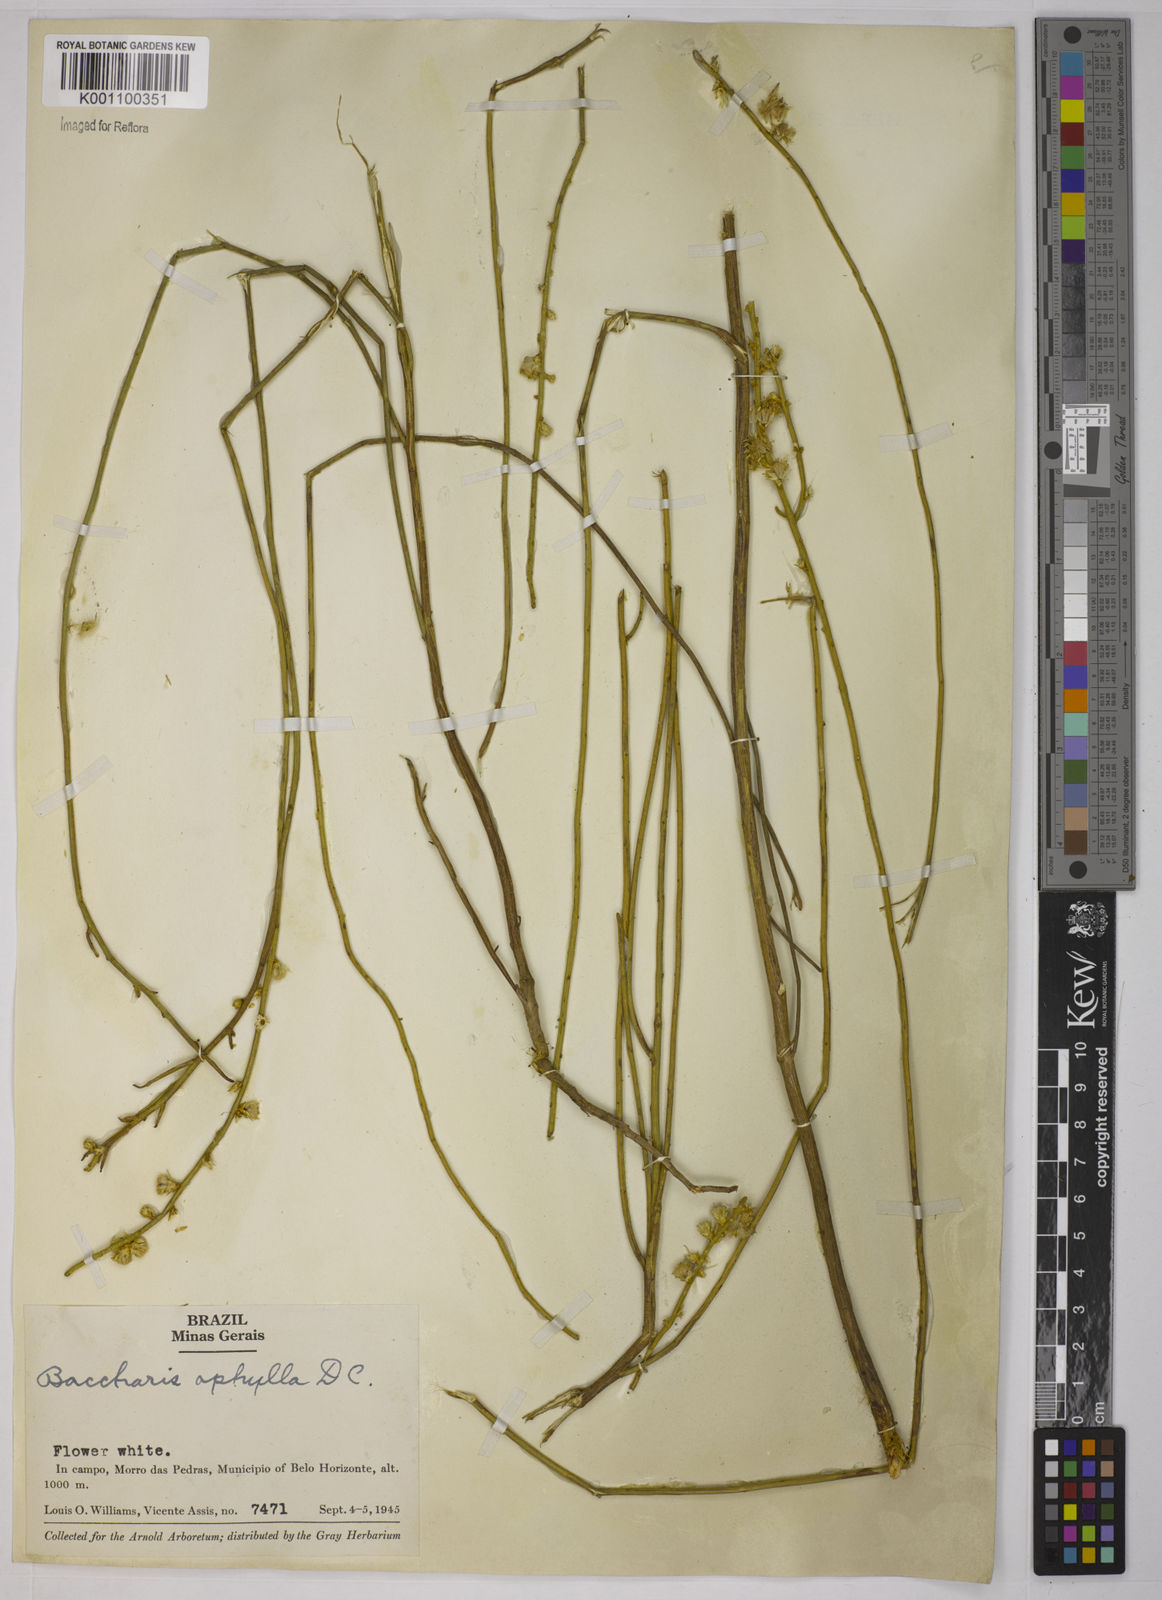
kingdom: Plantae
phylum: Tracheophyta
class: Magnoliopsida
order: Asterales
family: Asteraceae
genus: Baccharis
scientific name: Baccharis aphylla
